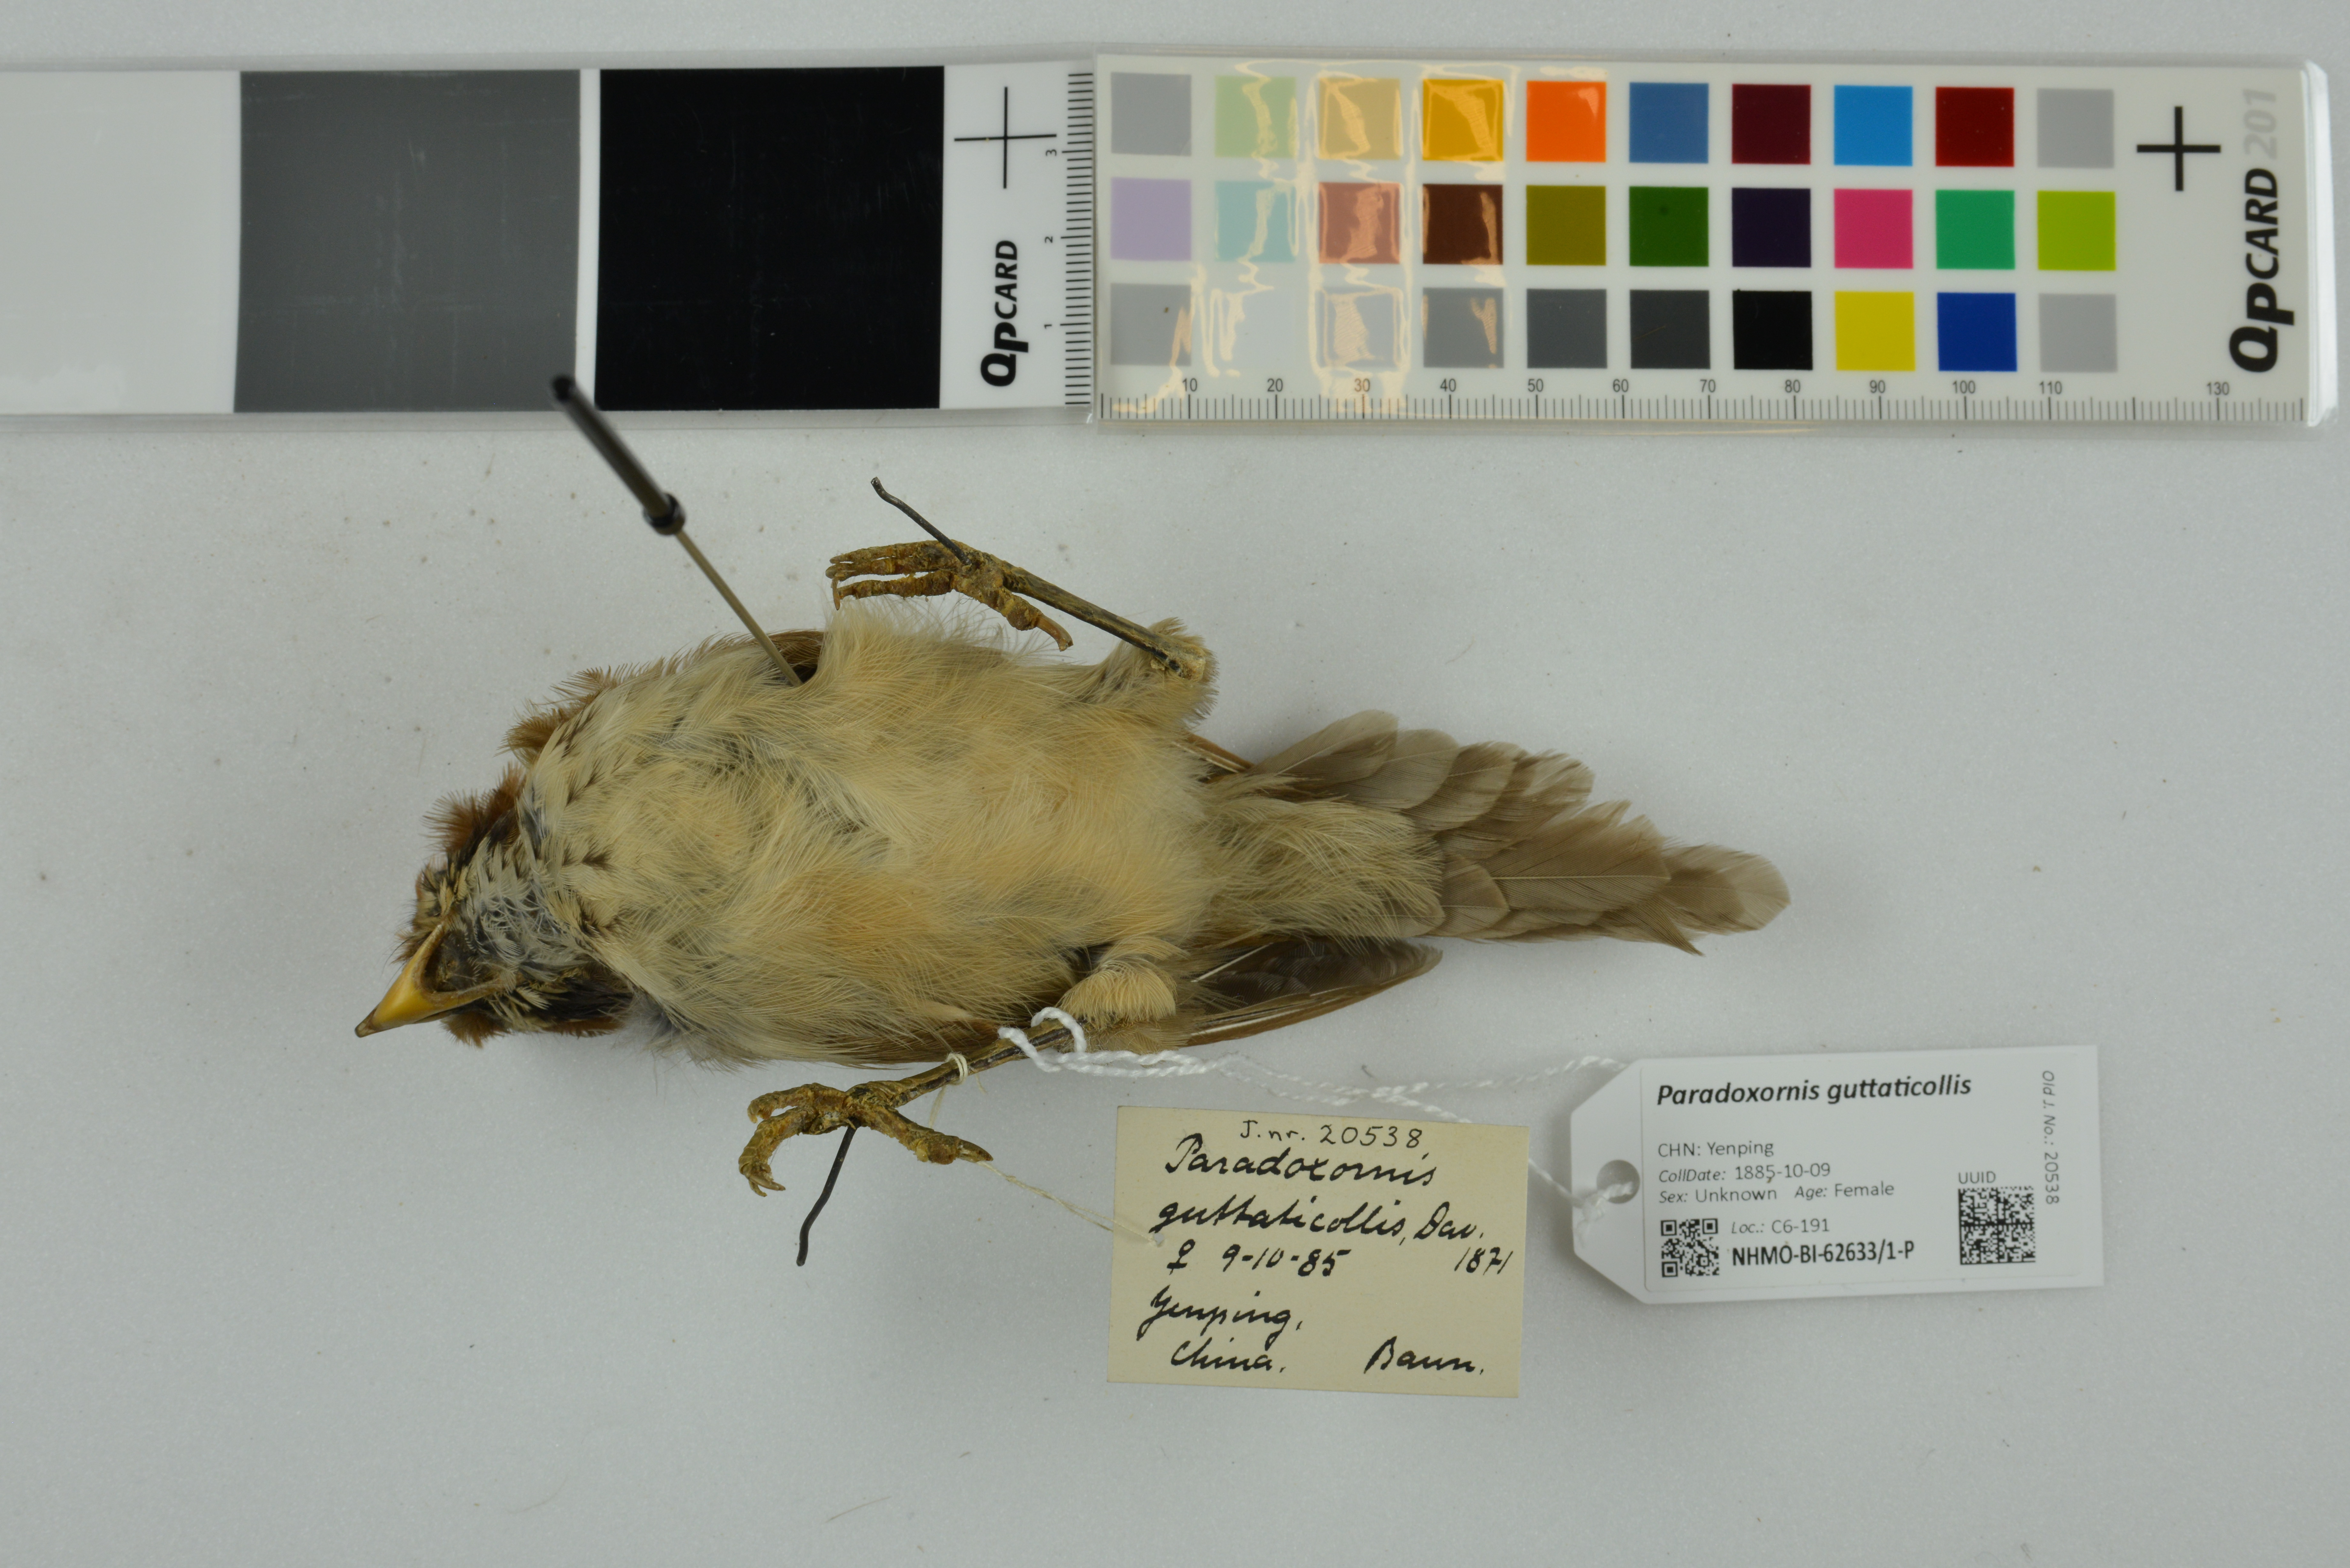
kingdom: Animalia
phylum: Chordata
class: Aves
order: Passeriformes
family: Sylviidae
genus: Paradoxornis
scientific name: Paradoxornis guttaticollis
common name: Spot-breasted parrotbill
